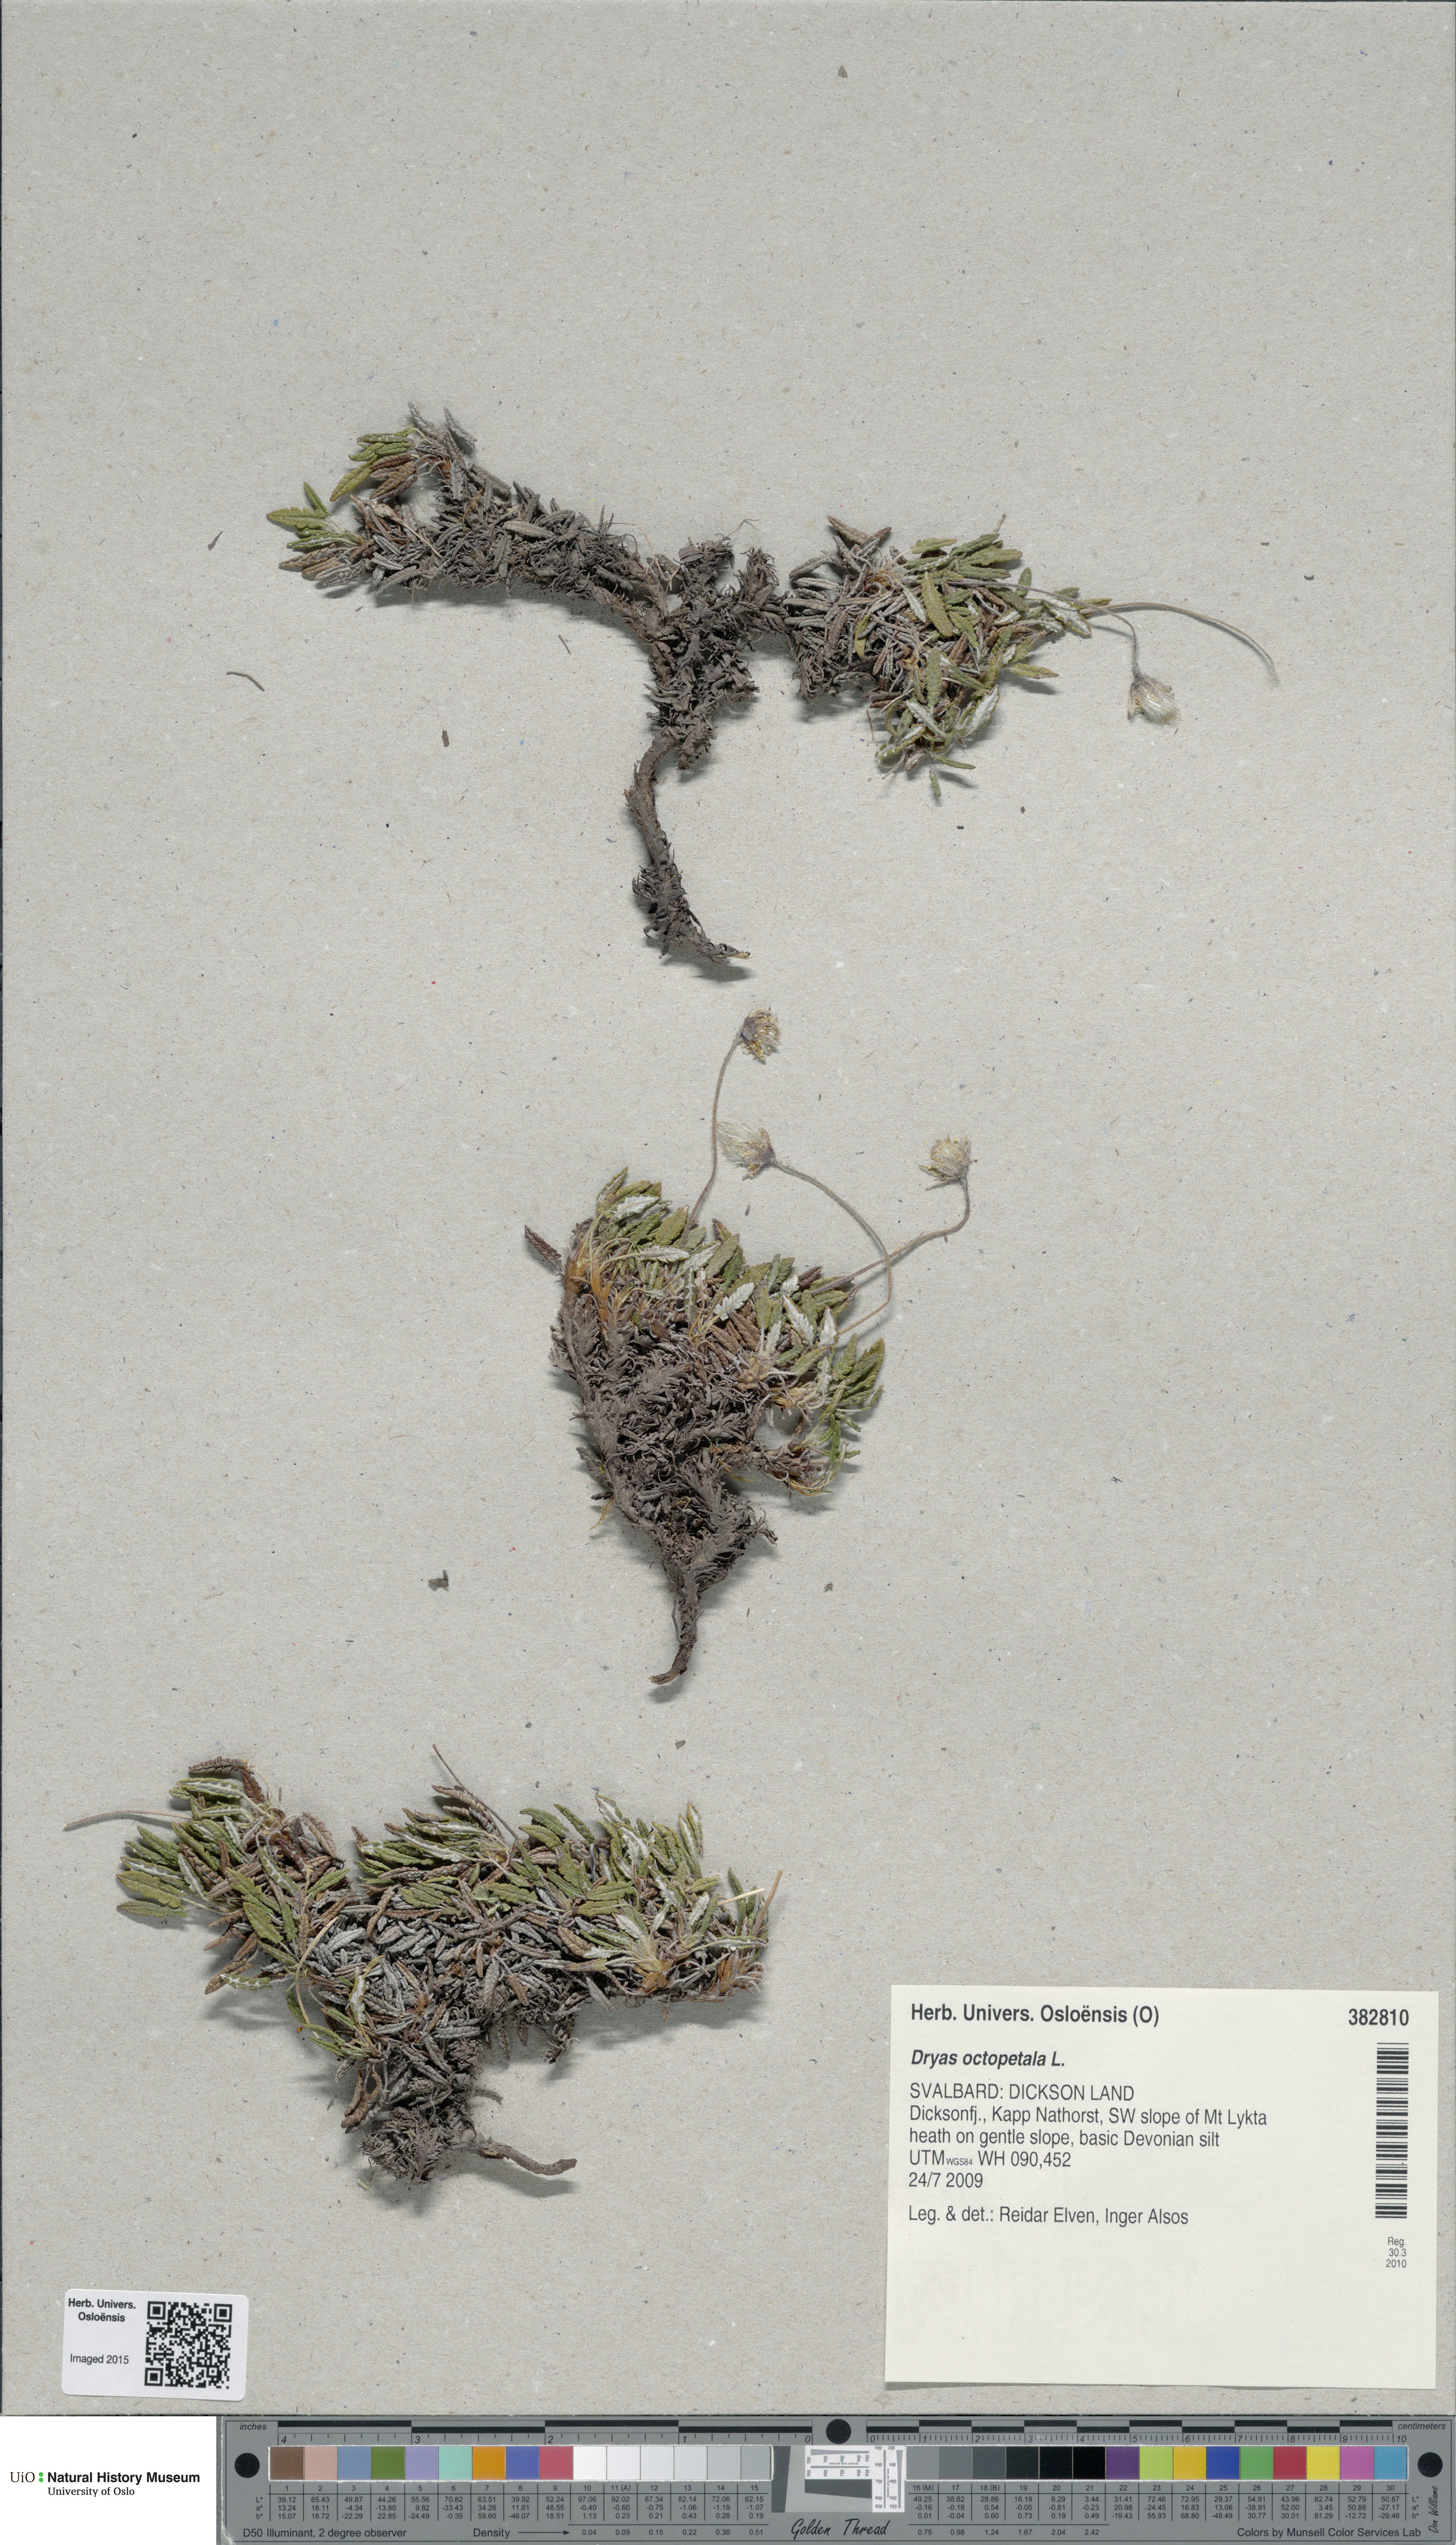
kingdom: Plantae
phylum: Tracheophyta
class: Magnoliopsida
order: Rosales
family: Rosaceae
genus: Dryas
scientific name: Dryas octopetala
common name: Eight-petal mountain-avens
